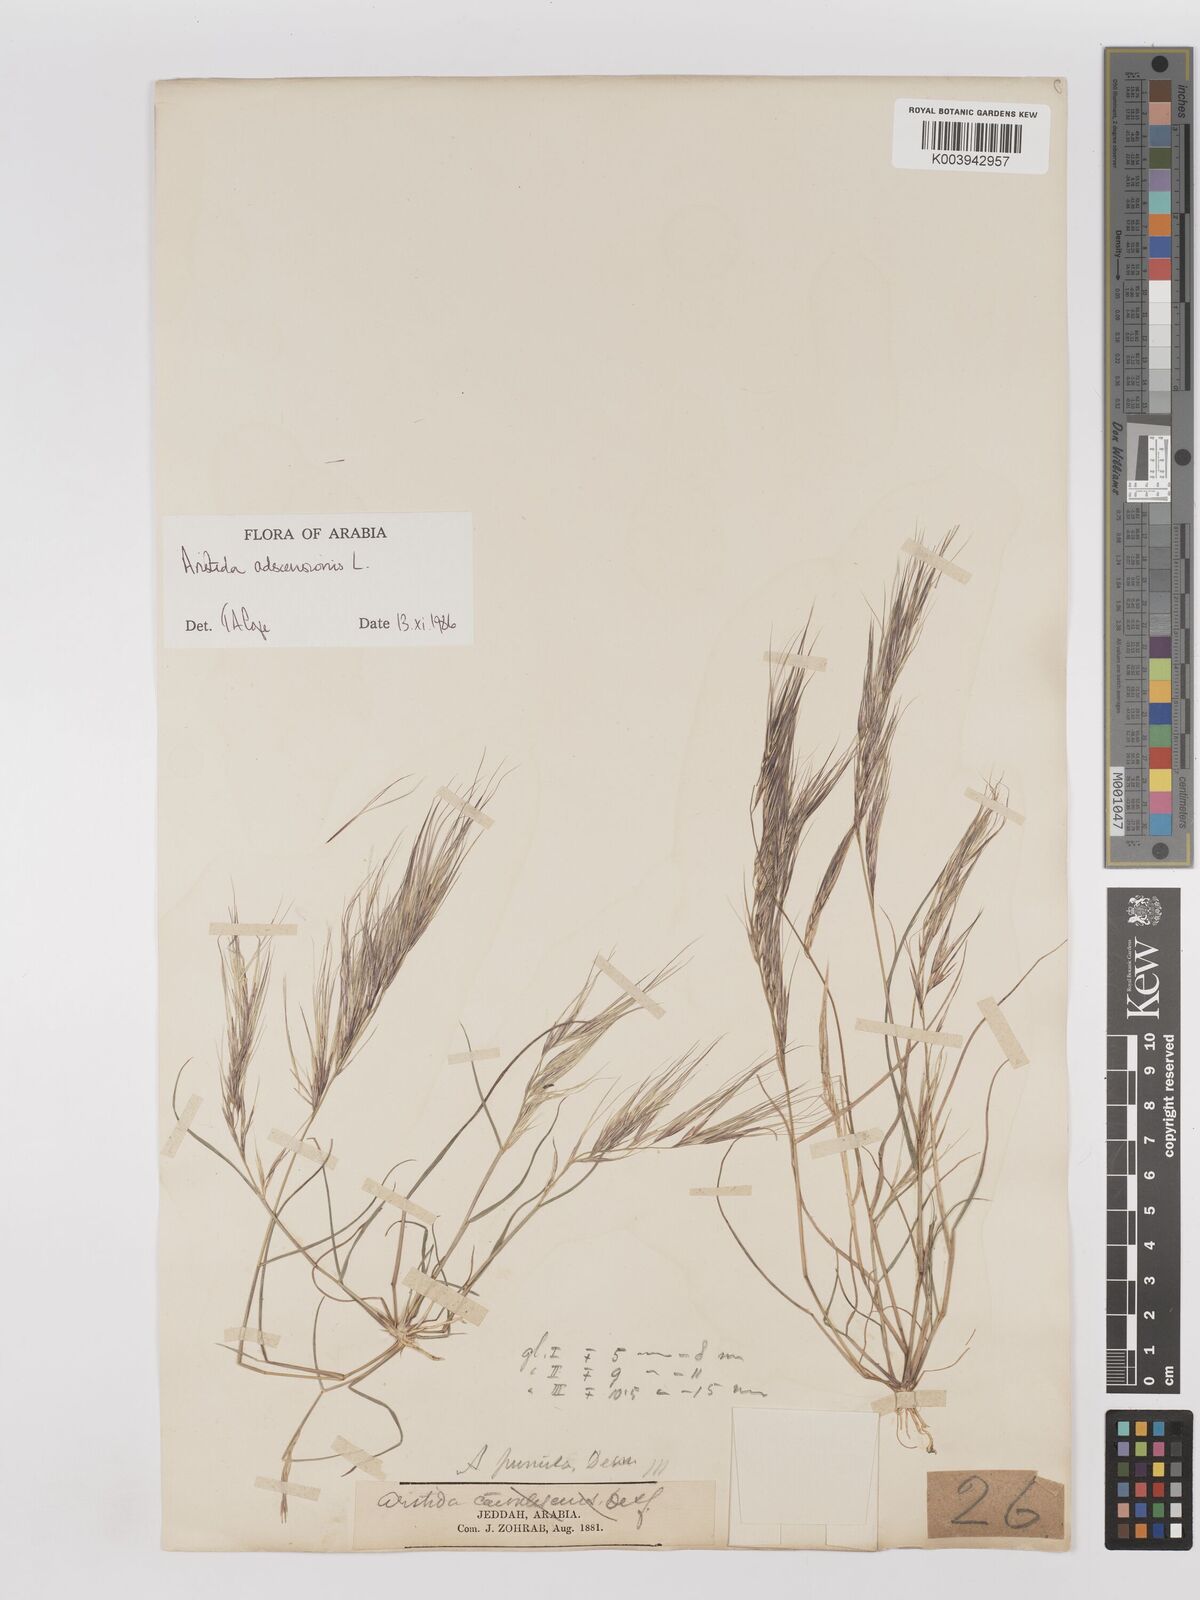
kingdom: Plantae
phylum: Tracheophyta
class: Liliopsida
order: Poales
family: Poaceae
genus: Aristida
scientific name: Aristida adscensionis
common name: Sixweeks threeawn
